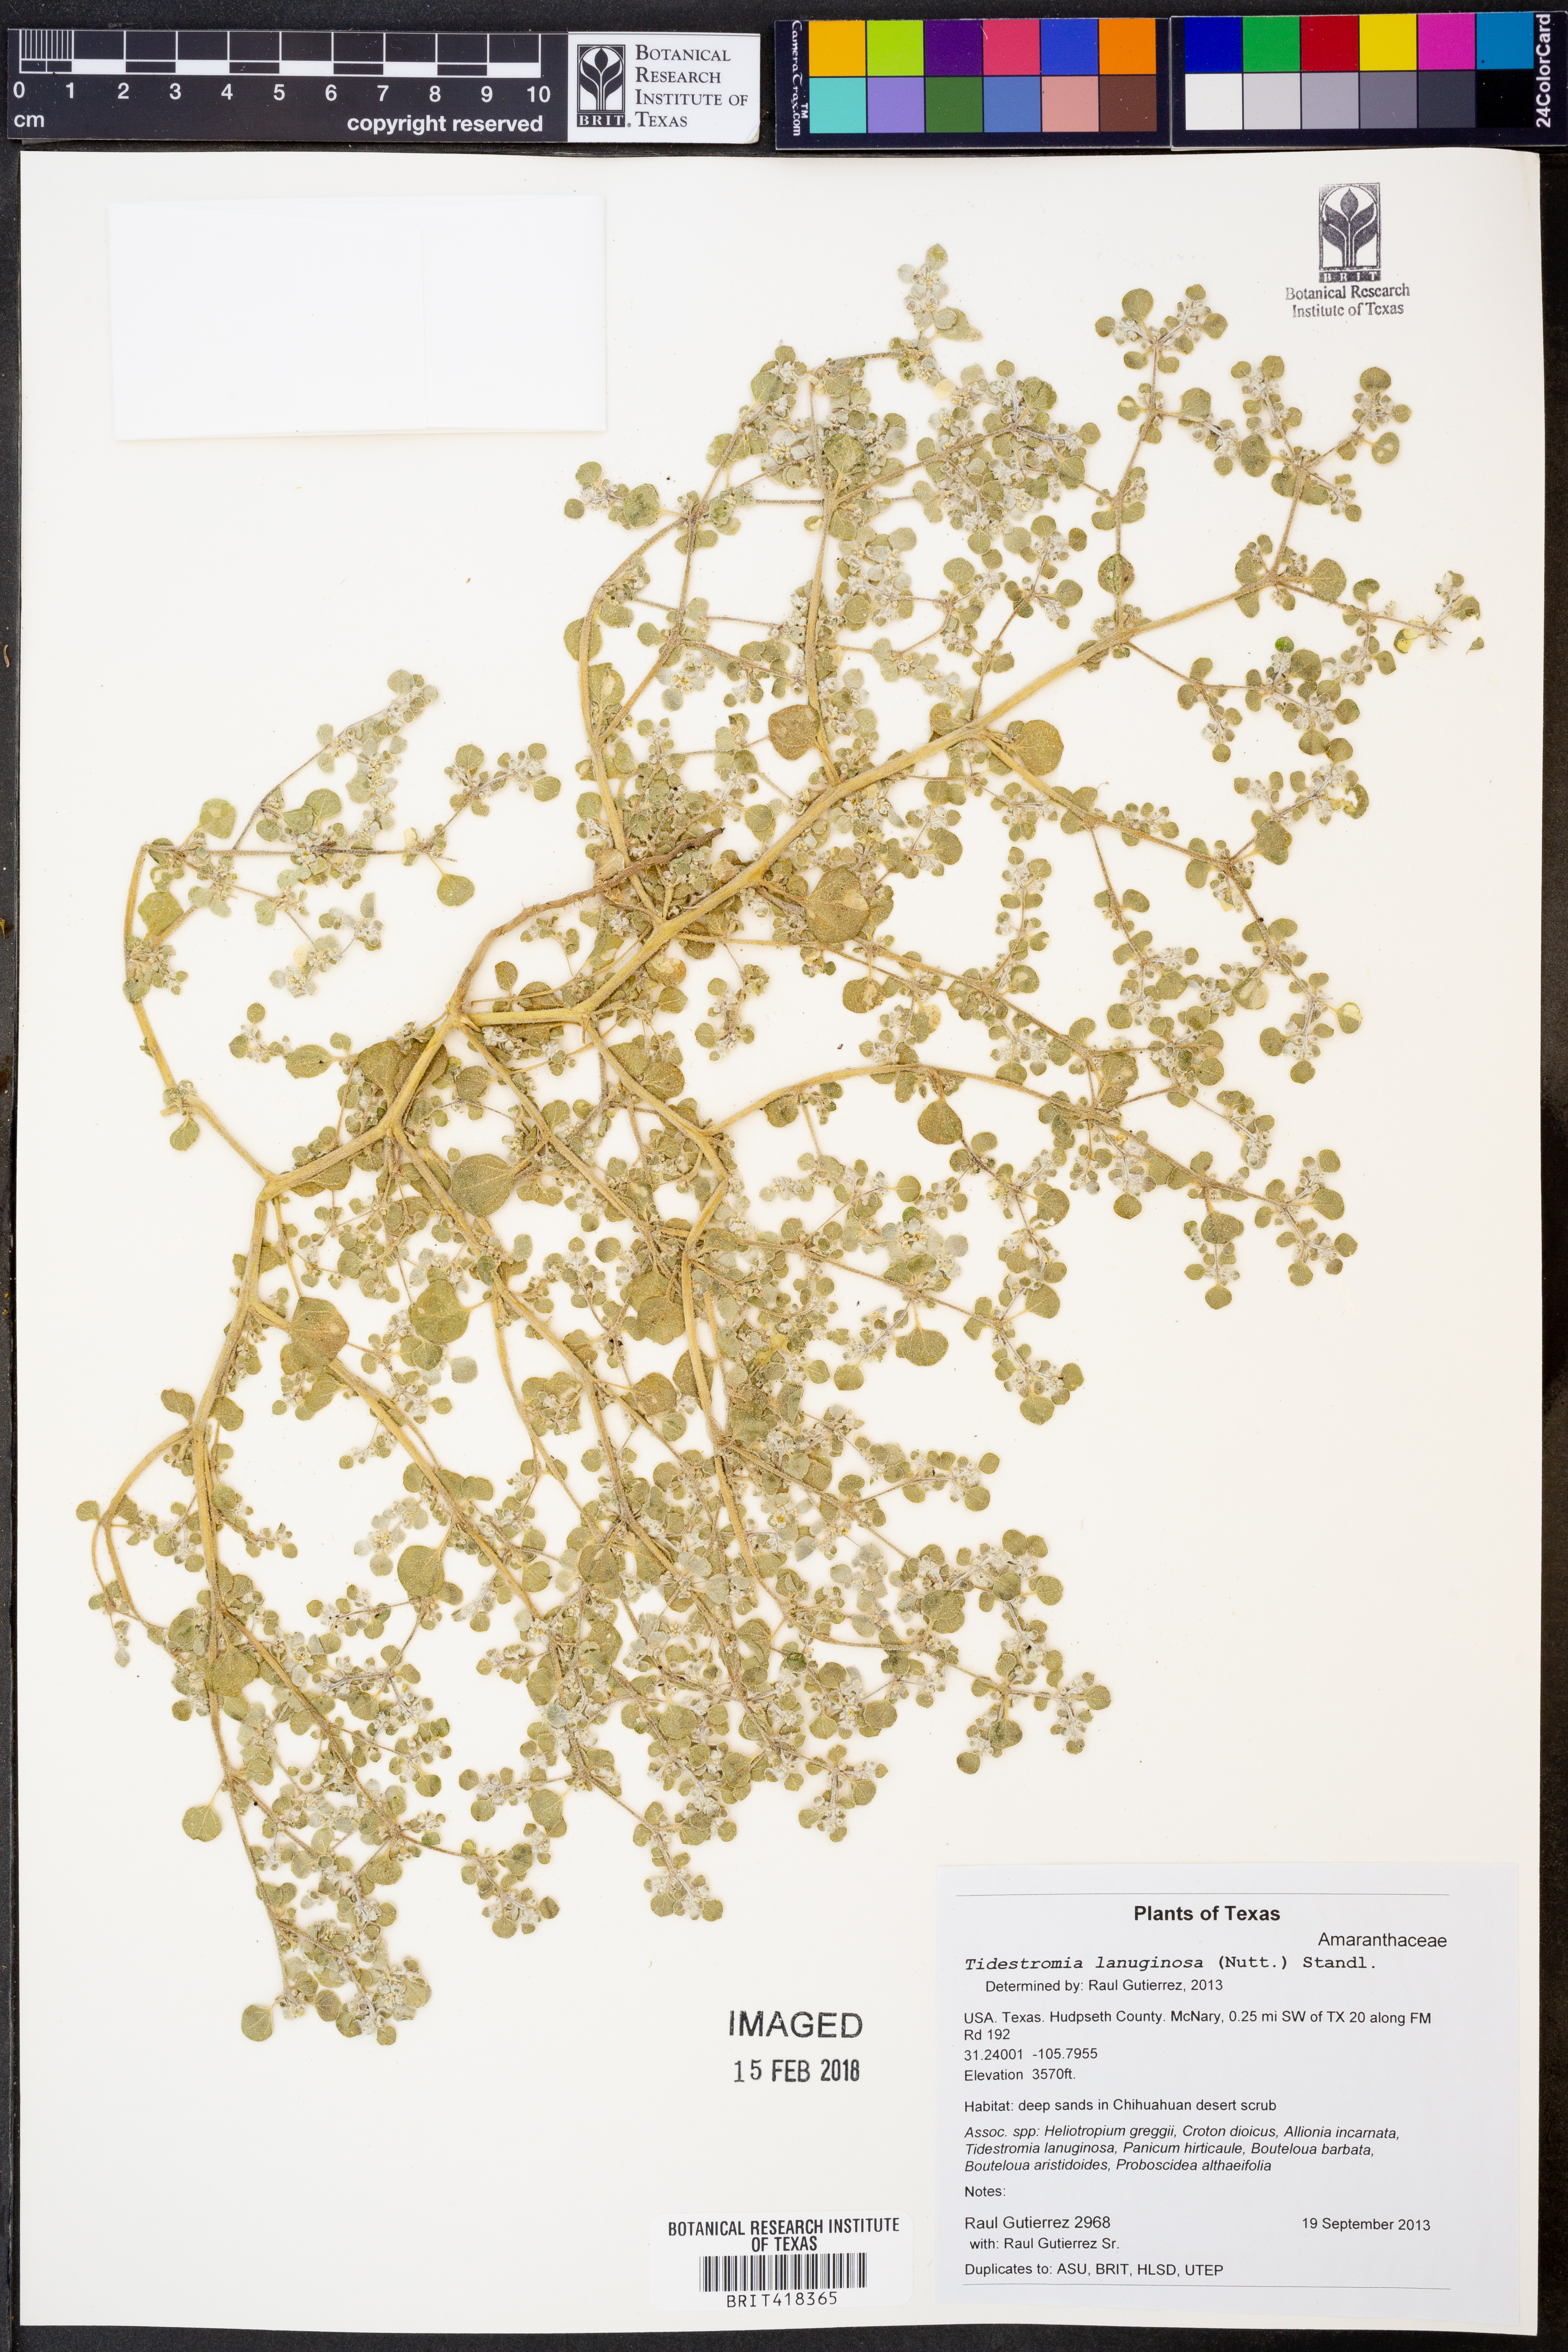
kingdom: Plantae
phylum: Tracheophyta
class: Magnoliopsida
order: Caryophyllales
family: Amaranthaceae
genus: Tidestromia
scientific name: Tidestromia lanuginosa
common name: Woolly tidestromia
